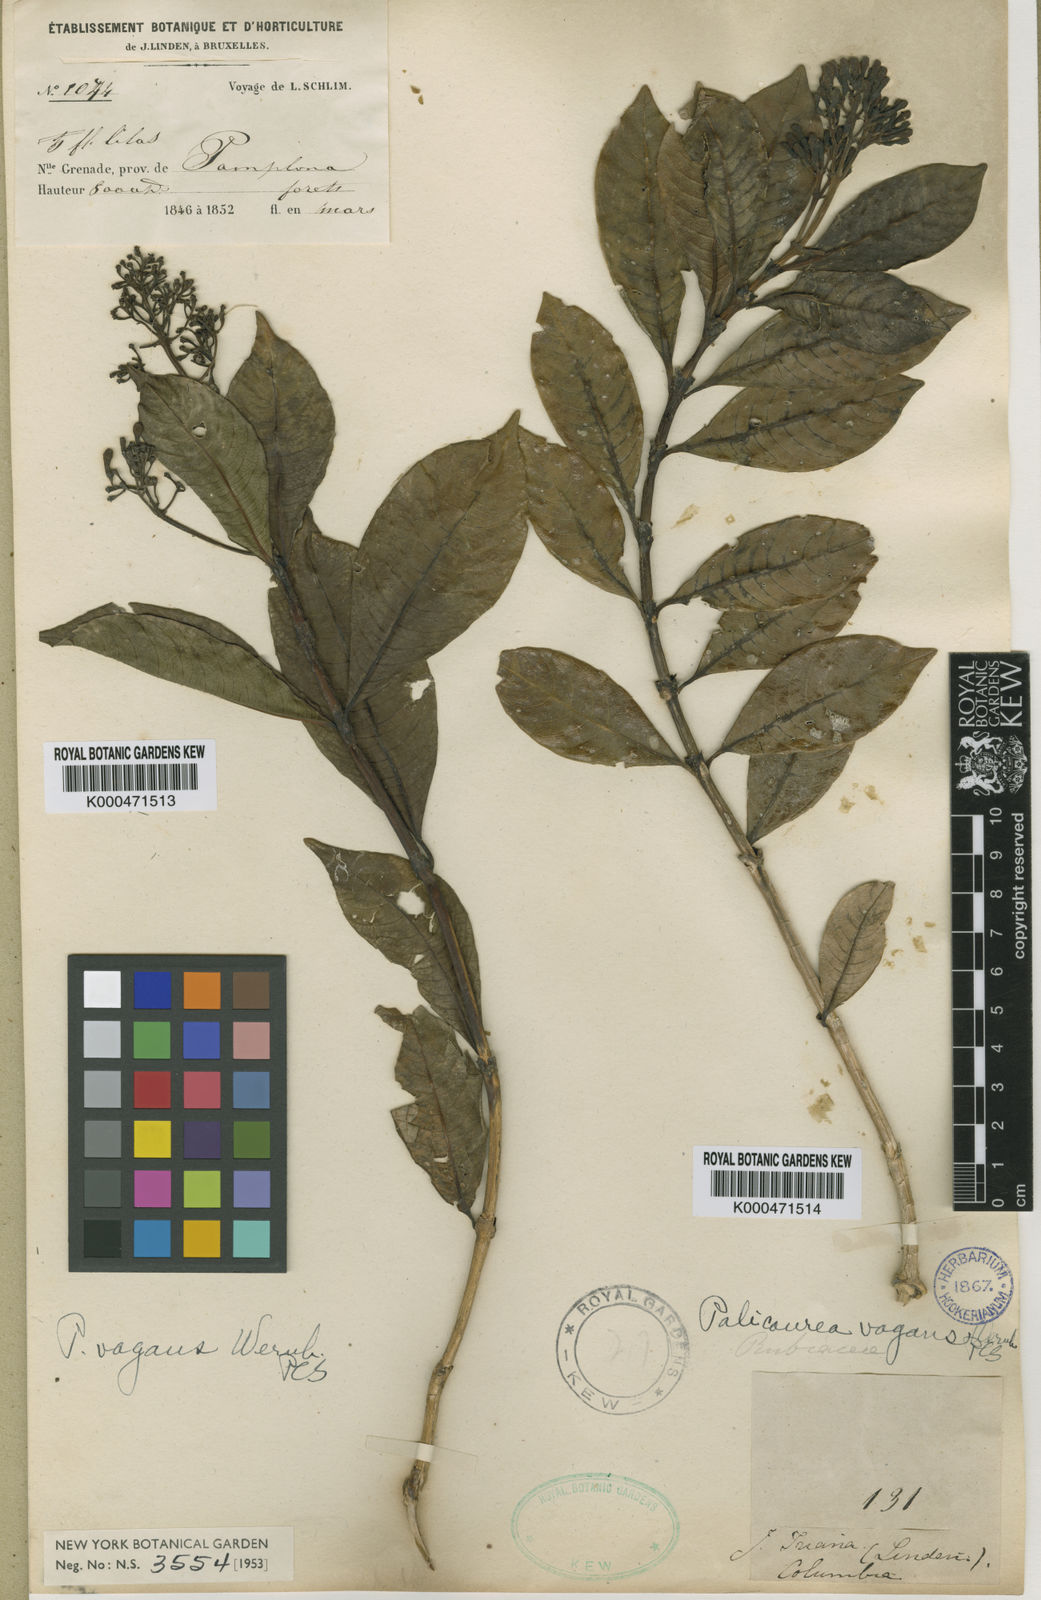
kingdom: Plantae
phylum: Tracheophyta
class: Magnoliopsida
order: Gentianales
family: Rubiaceae
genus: Palicourea
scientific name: Palicourea sulphurea
